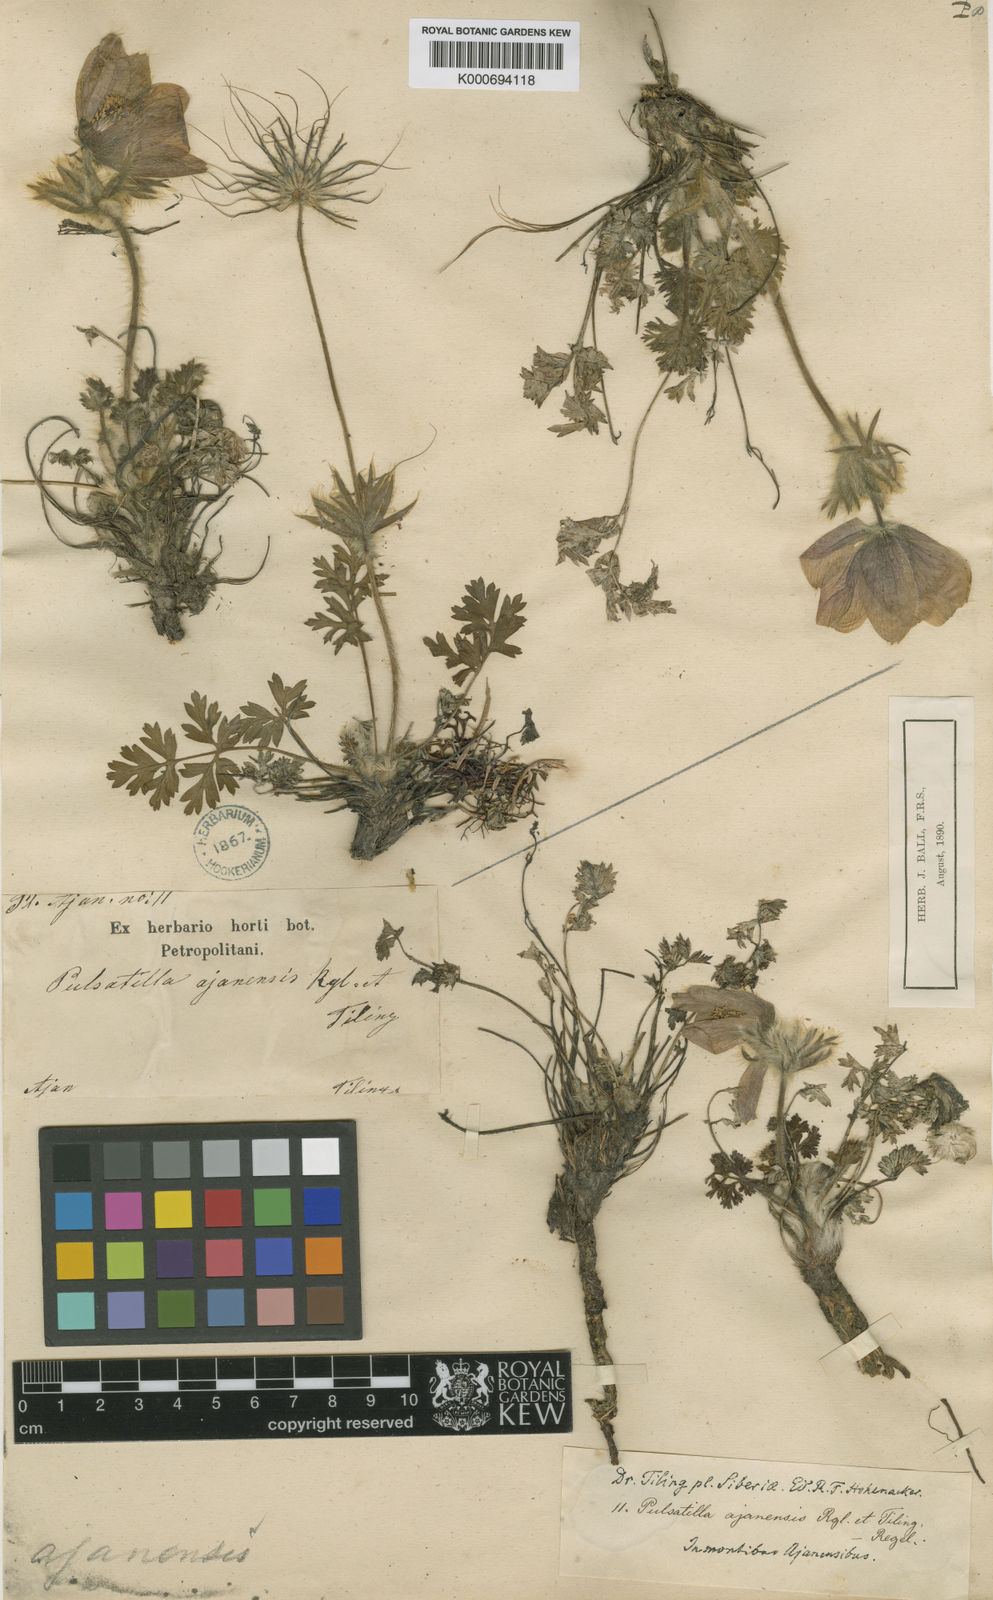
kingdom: Plantae
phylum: Tracheophyta
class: Magnoliopsida
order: Ranunculales
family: Ranunculaceae
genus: Pulsatilla
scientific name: Pulsatilla ajanensis
